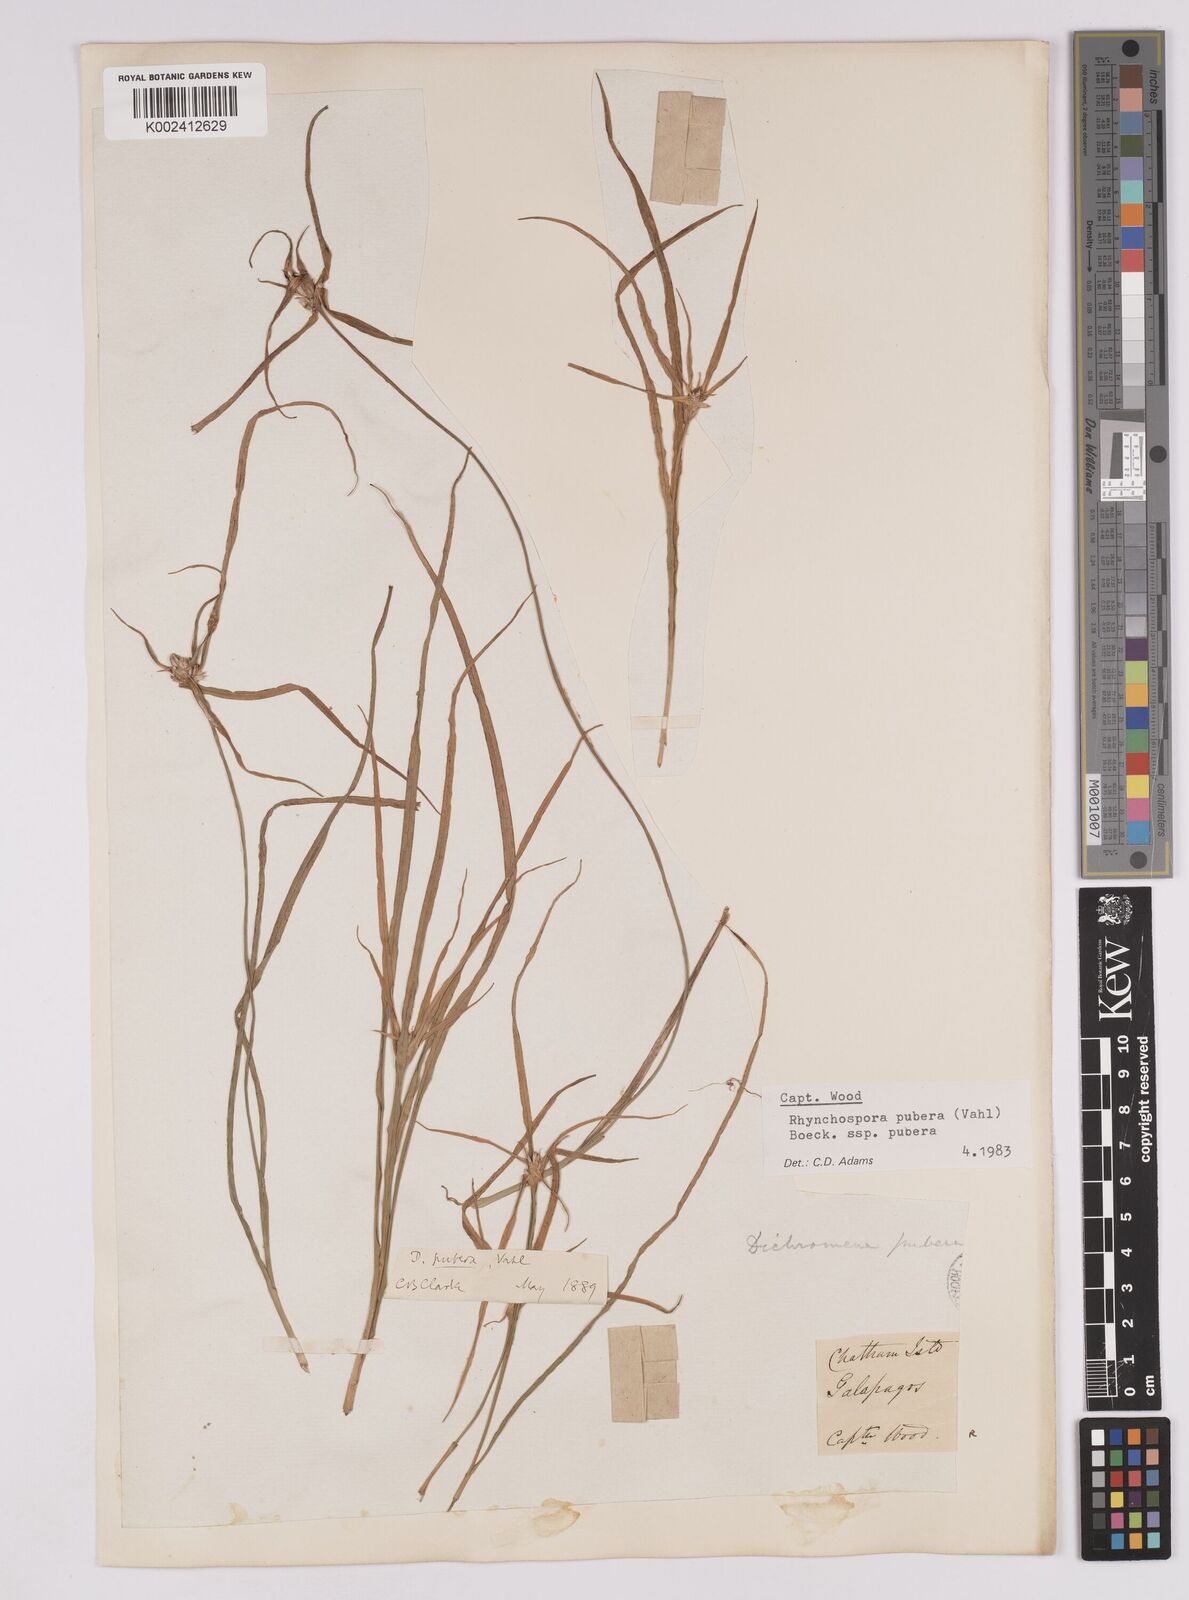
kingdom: Plantae
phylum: Tracheophyta
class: Liliopsida
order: Poales
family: Cyperaceae
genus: Rhynchospora
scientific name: Rhynchospora pubera
